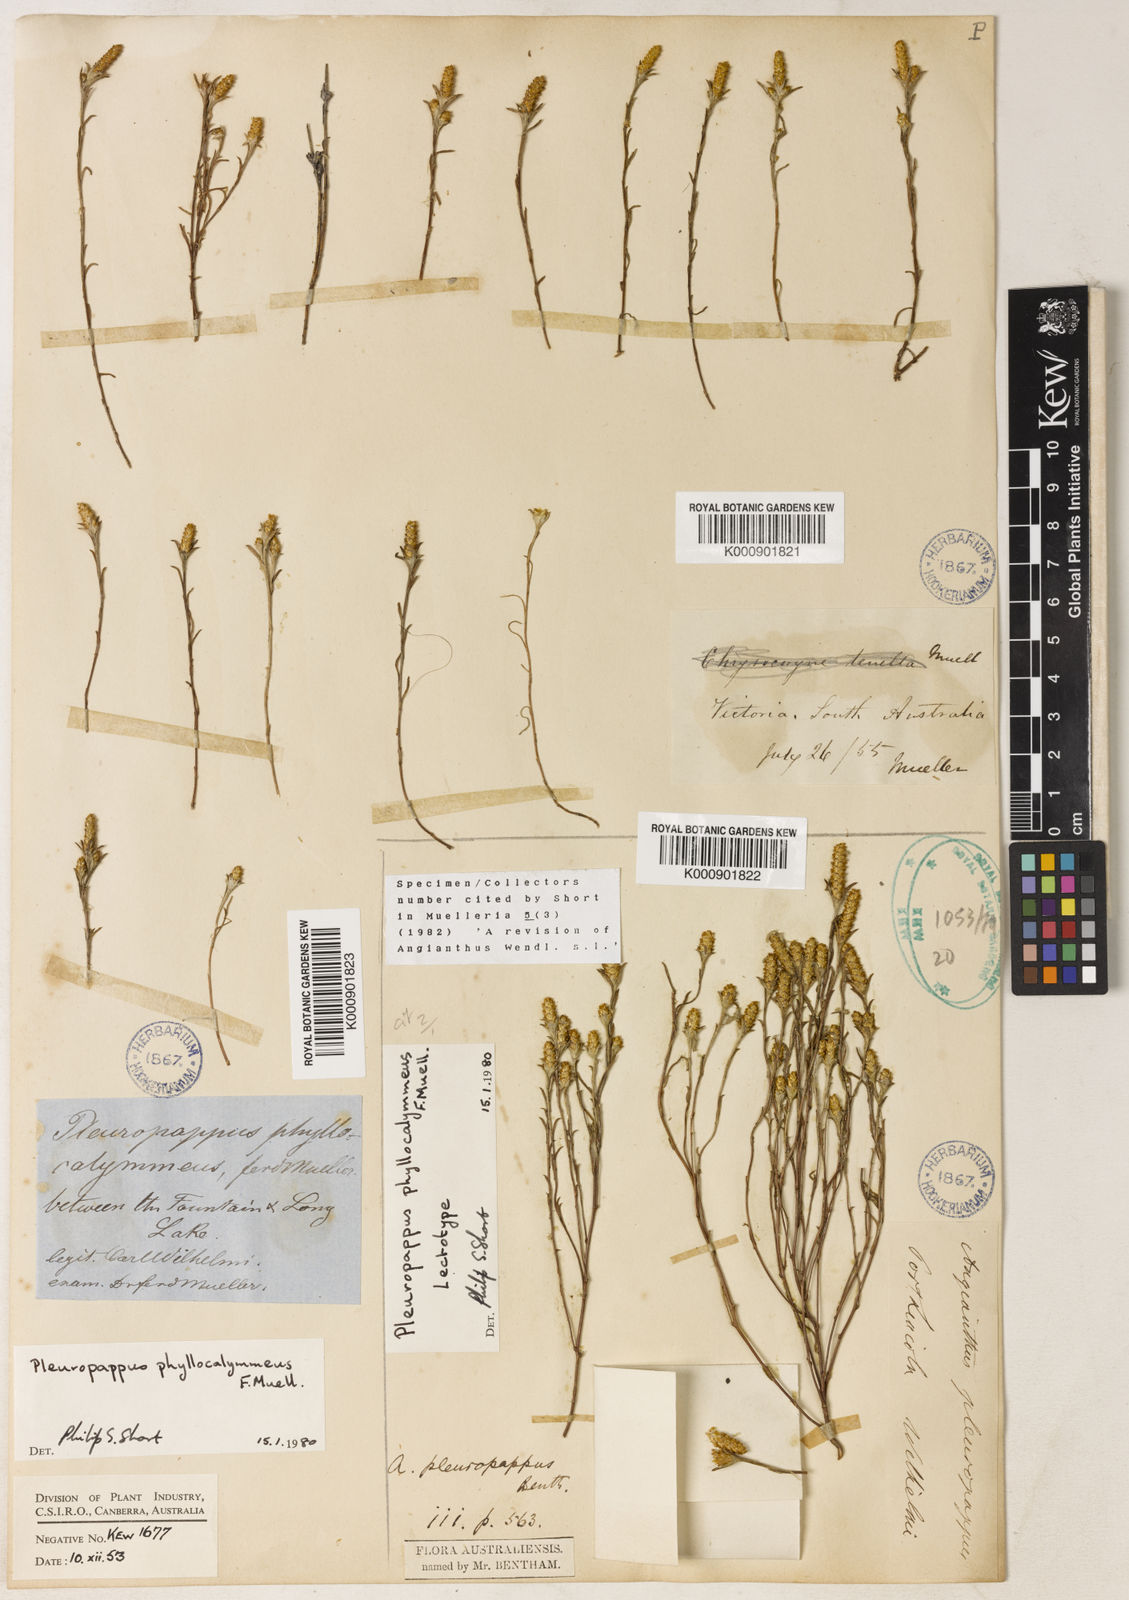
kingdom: Plantae
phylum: Tracheophyta
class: Magnoliopsida
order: Asterales
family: Asteraceae
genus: Angianthus
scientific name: Angianthus phyllocalymmeus
